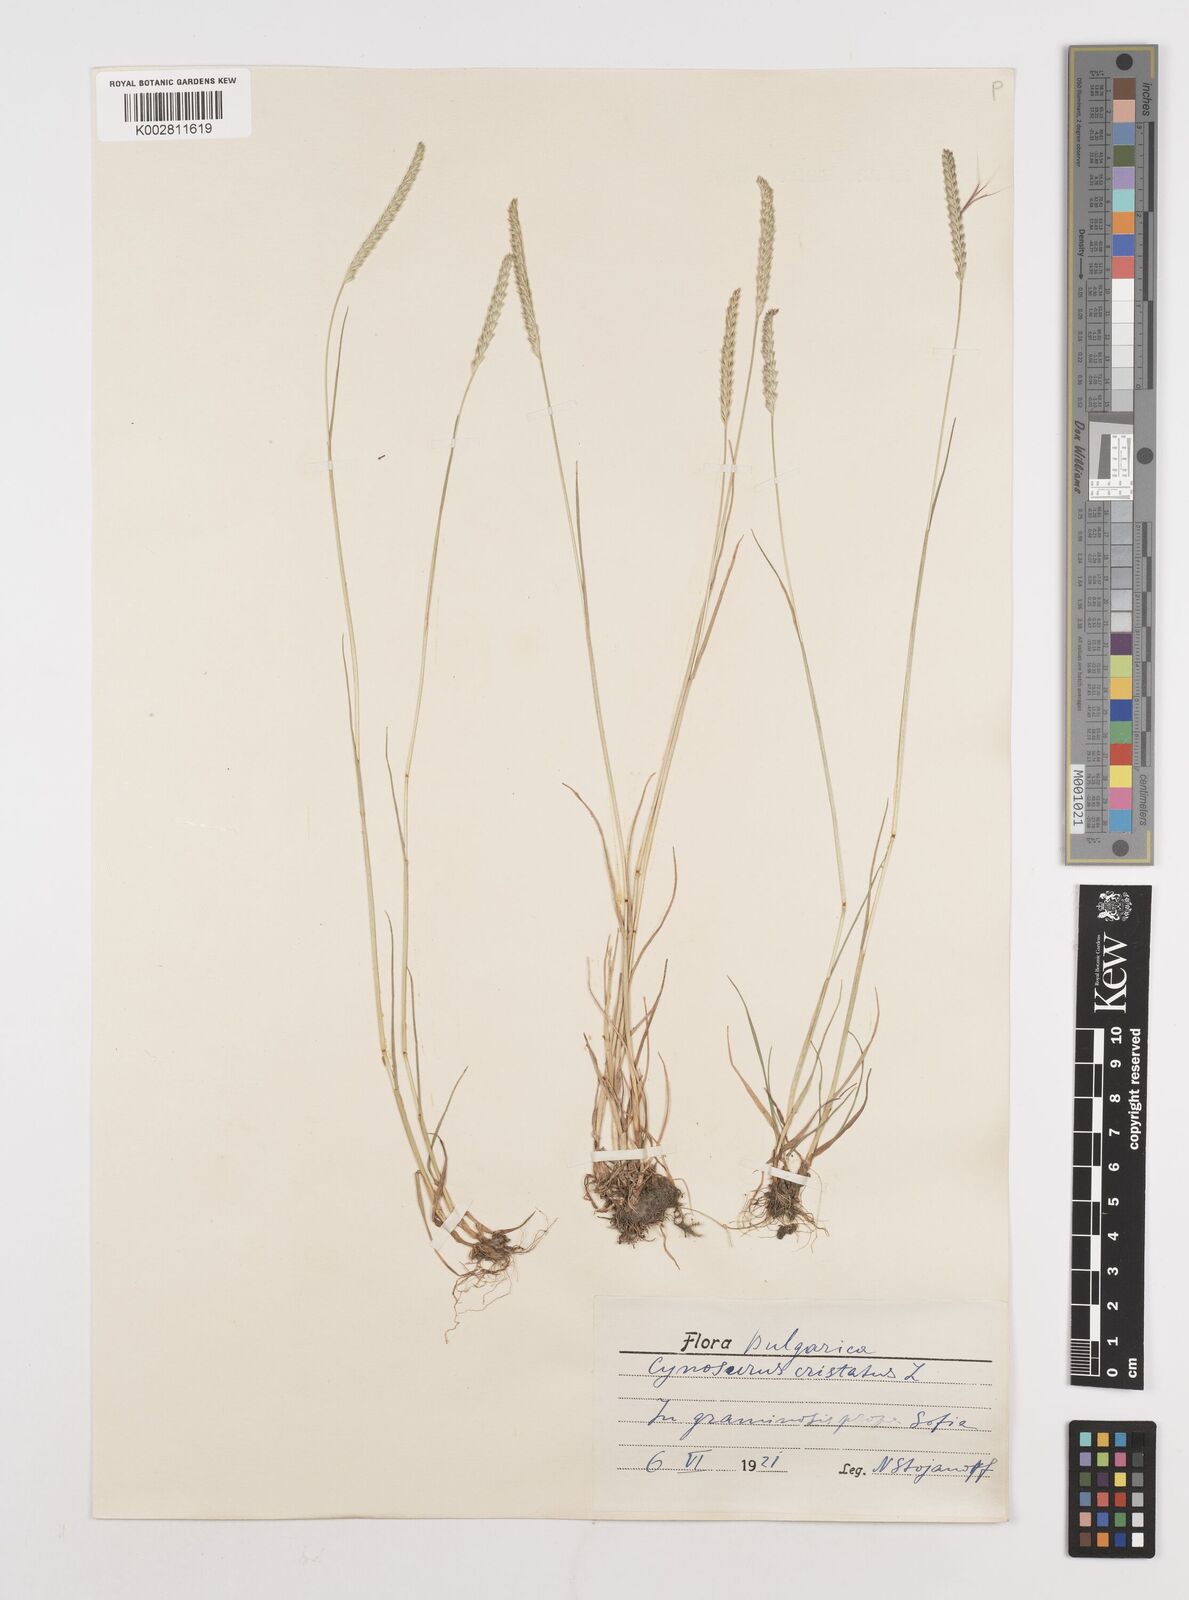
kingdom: Plantae
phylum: Tracheophyta
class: Liliopsida
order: Poales
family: Poaceae
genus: Cynosurus
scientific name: Cynosurus cristatus
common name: Crested dog's-tail
